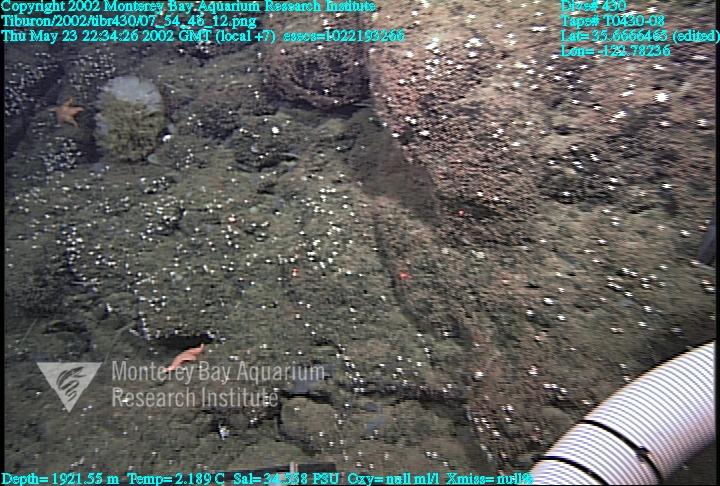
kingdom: Animalia
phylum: Porifera
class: Demospongiae
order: Poecilosclerida
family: Cladorhizidae
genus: Asbestopluma
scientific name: Asbestopluma
